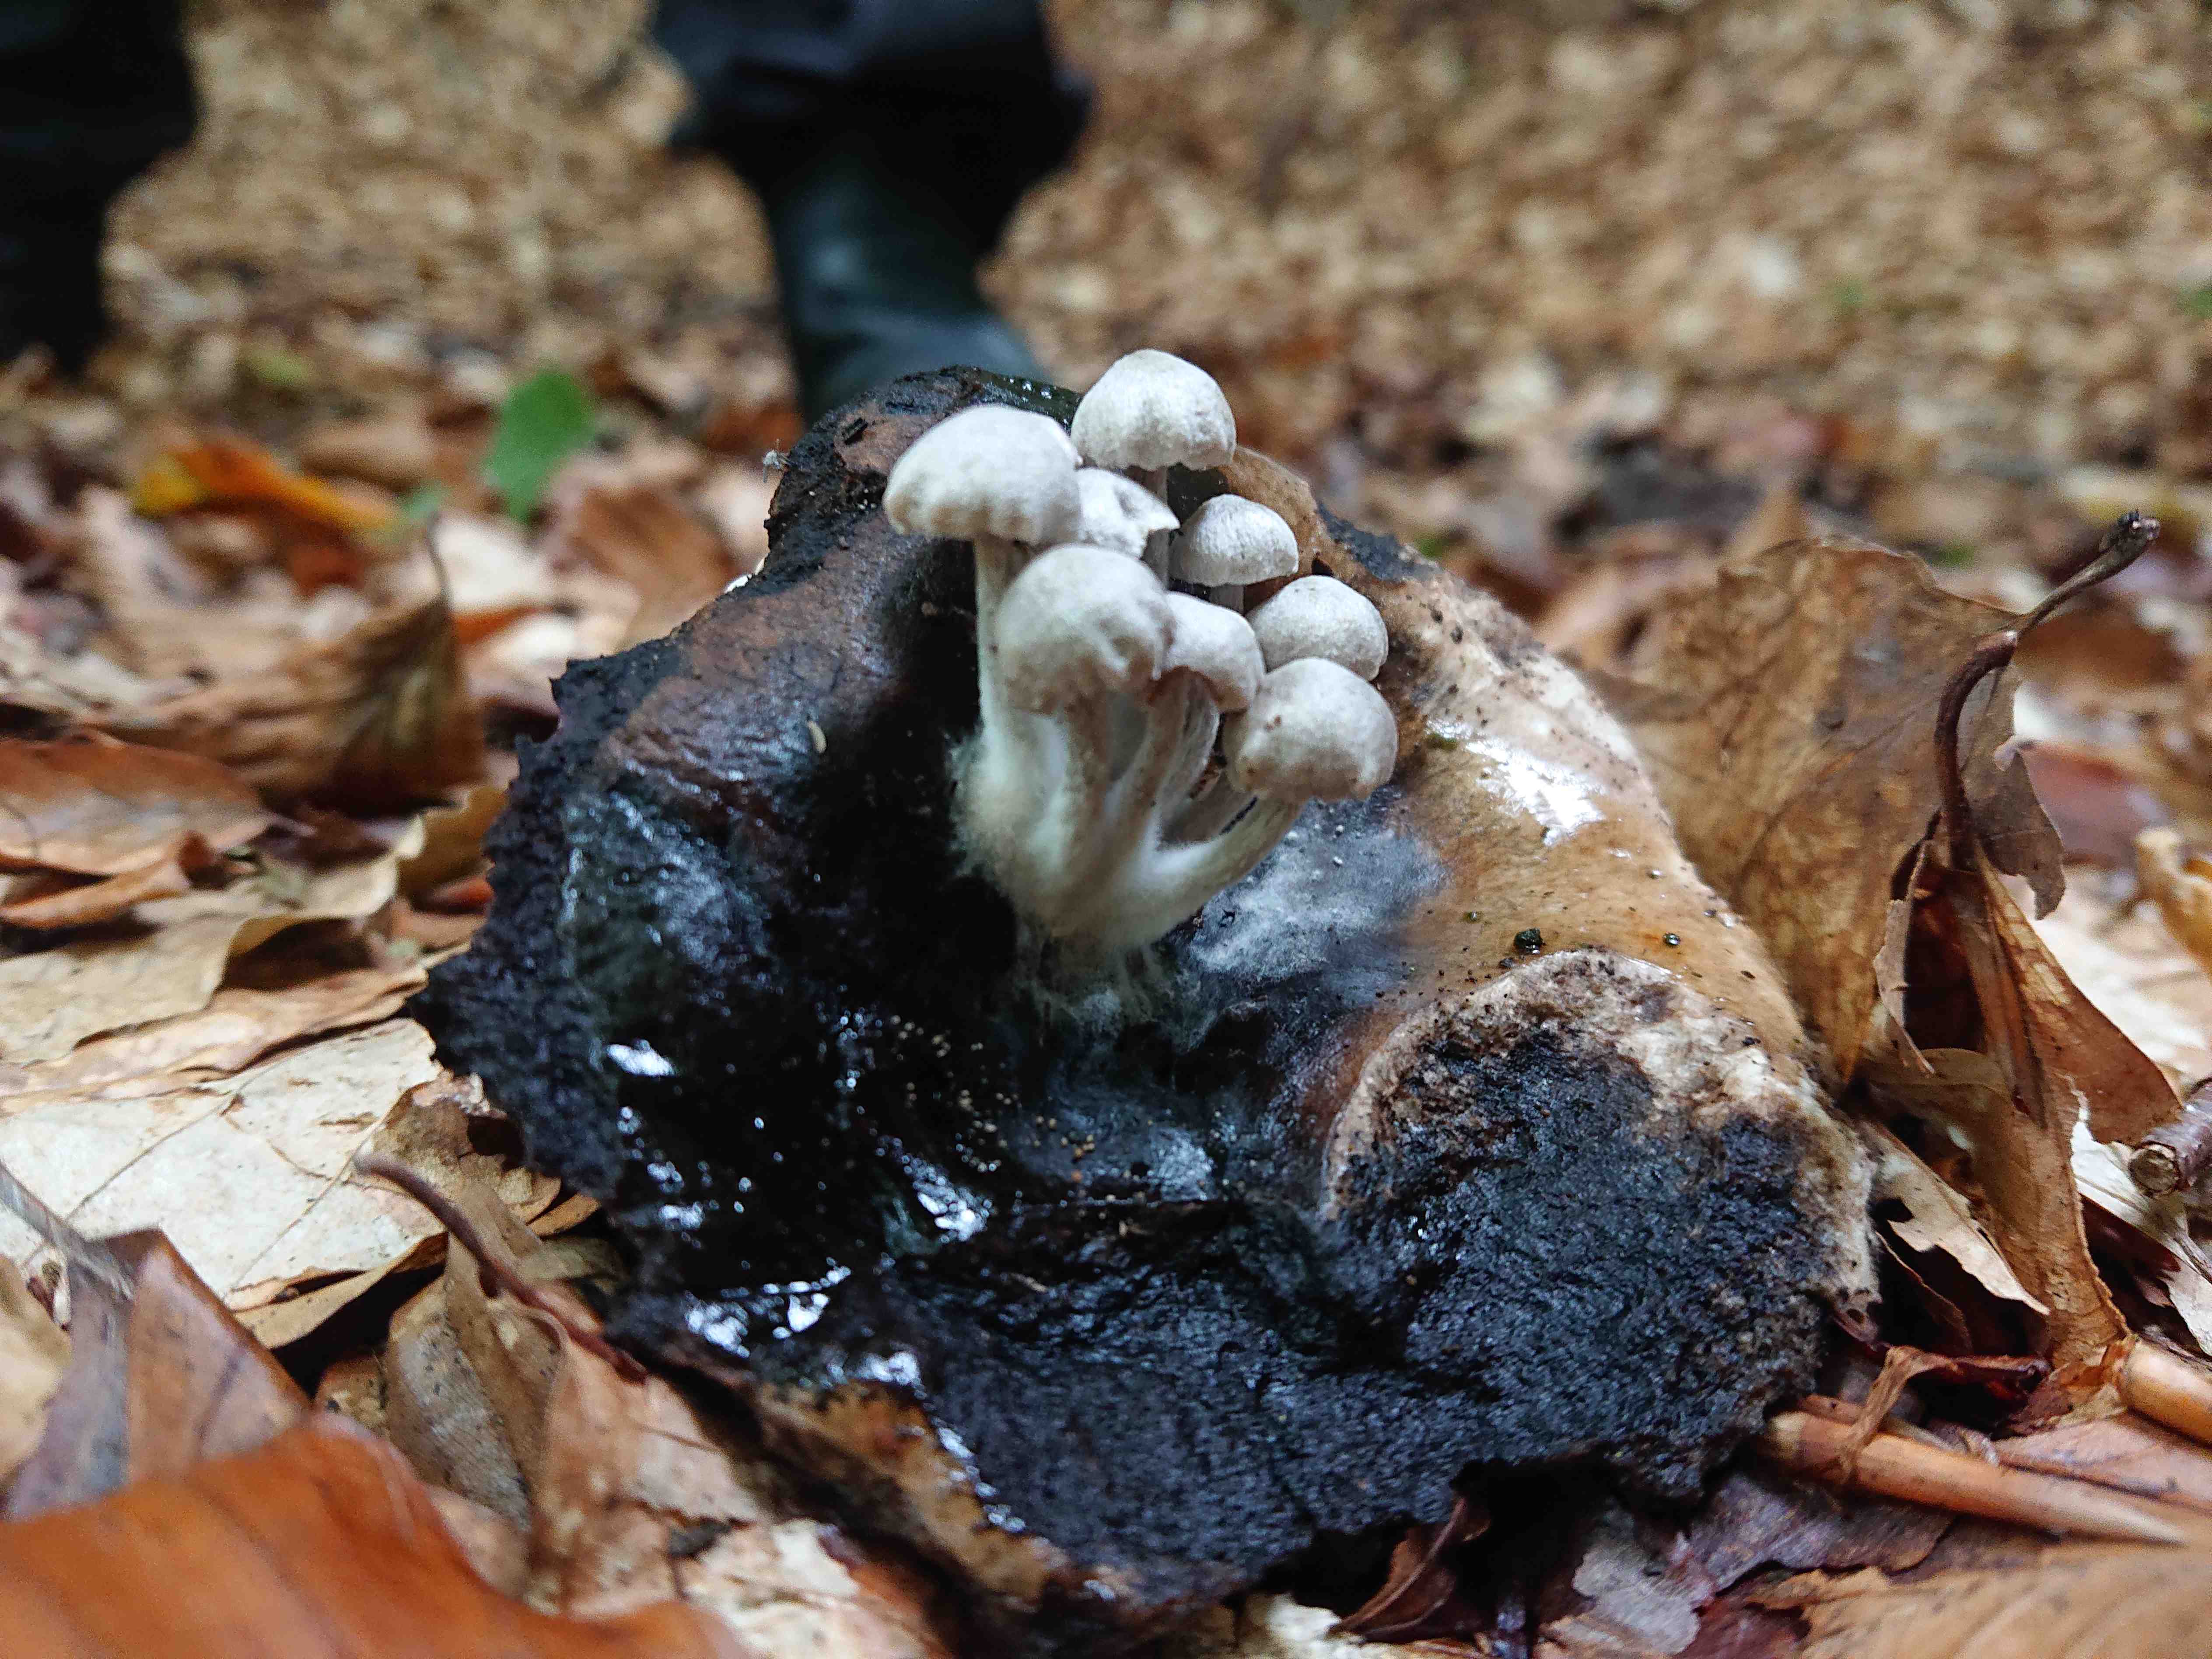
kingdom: Fungi
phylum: Basidiomycota
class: Agaricomycetes
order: Agaricales
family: Lyophyllaceae
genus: Asterophora
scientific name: Asterophora parasitica
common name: grå snyltehat
